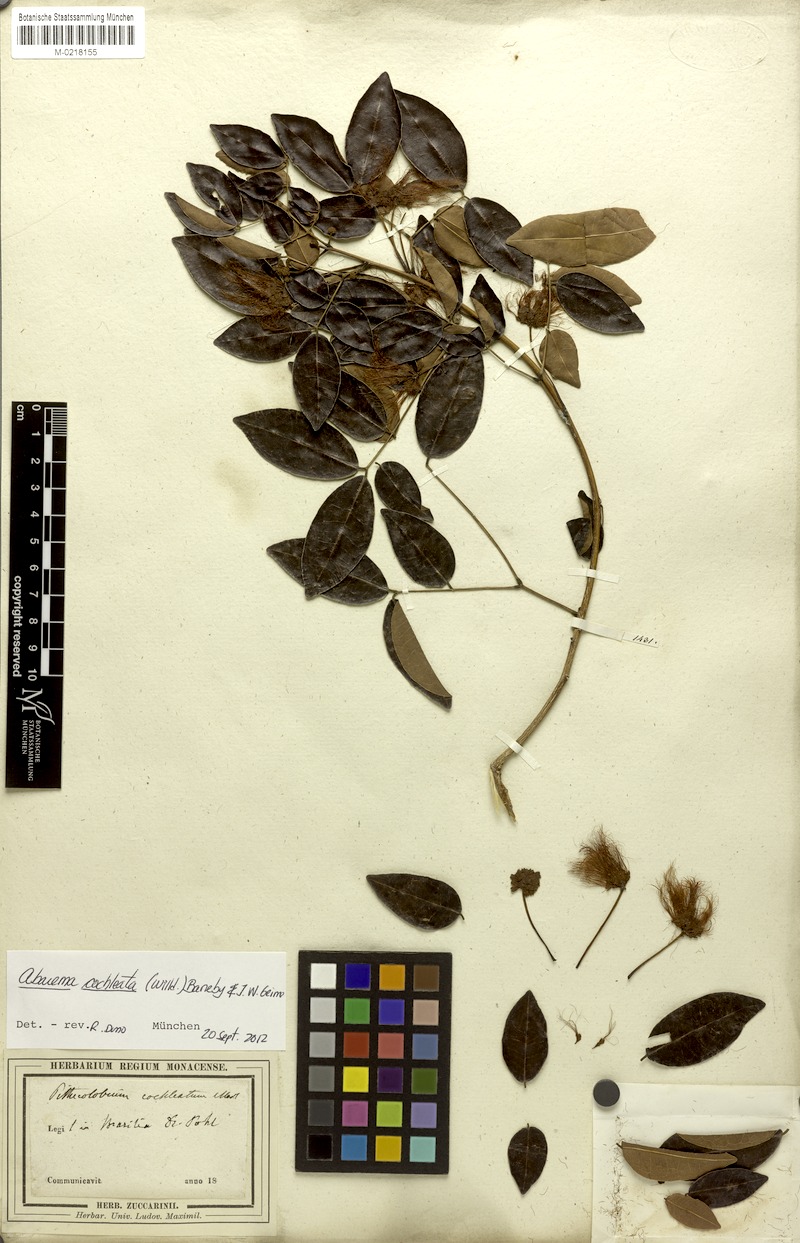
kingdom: Plantae
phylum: Tracheophyta
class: Magnoliopsida
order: Fabales
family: Fabaceae
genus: Jupunba
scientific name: Jupunba cochleata
